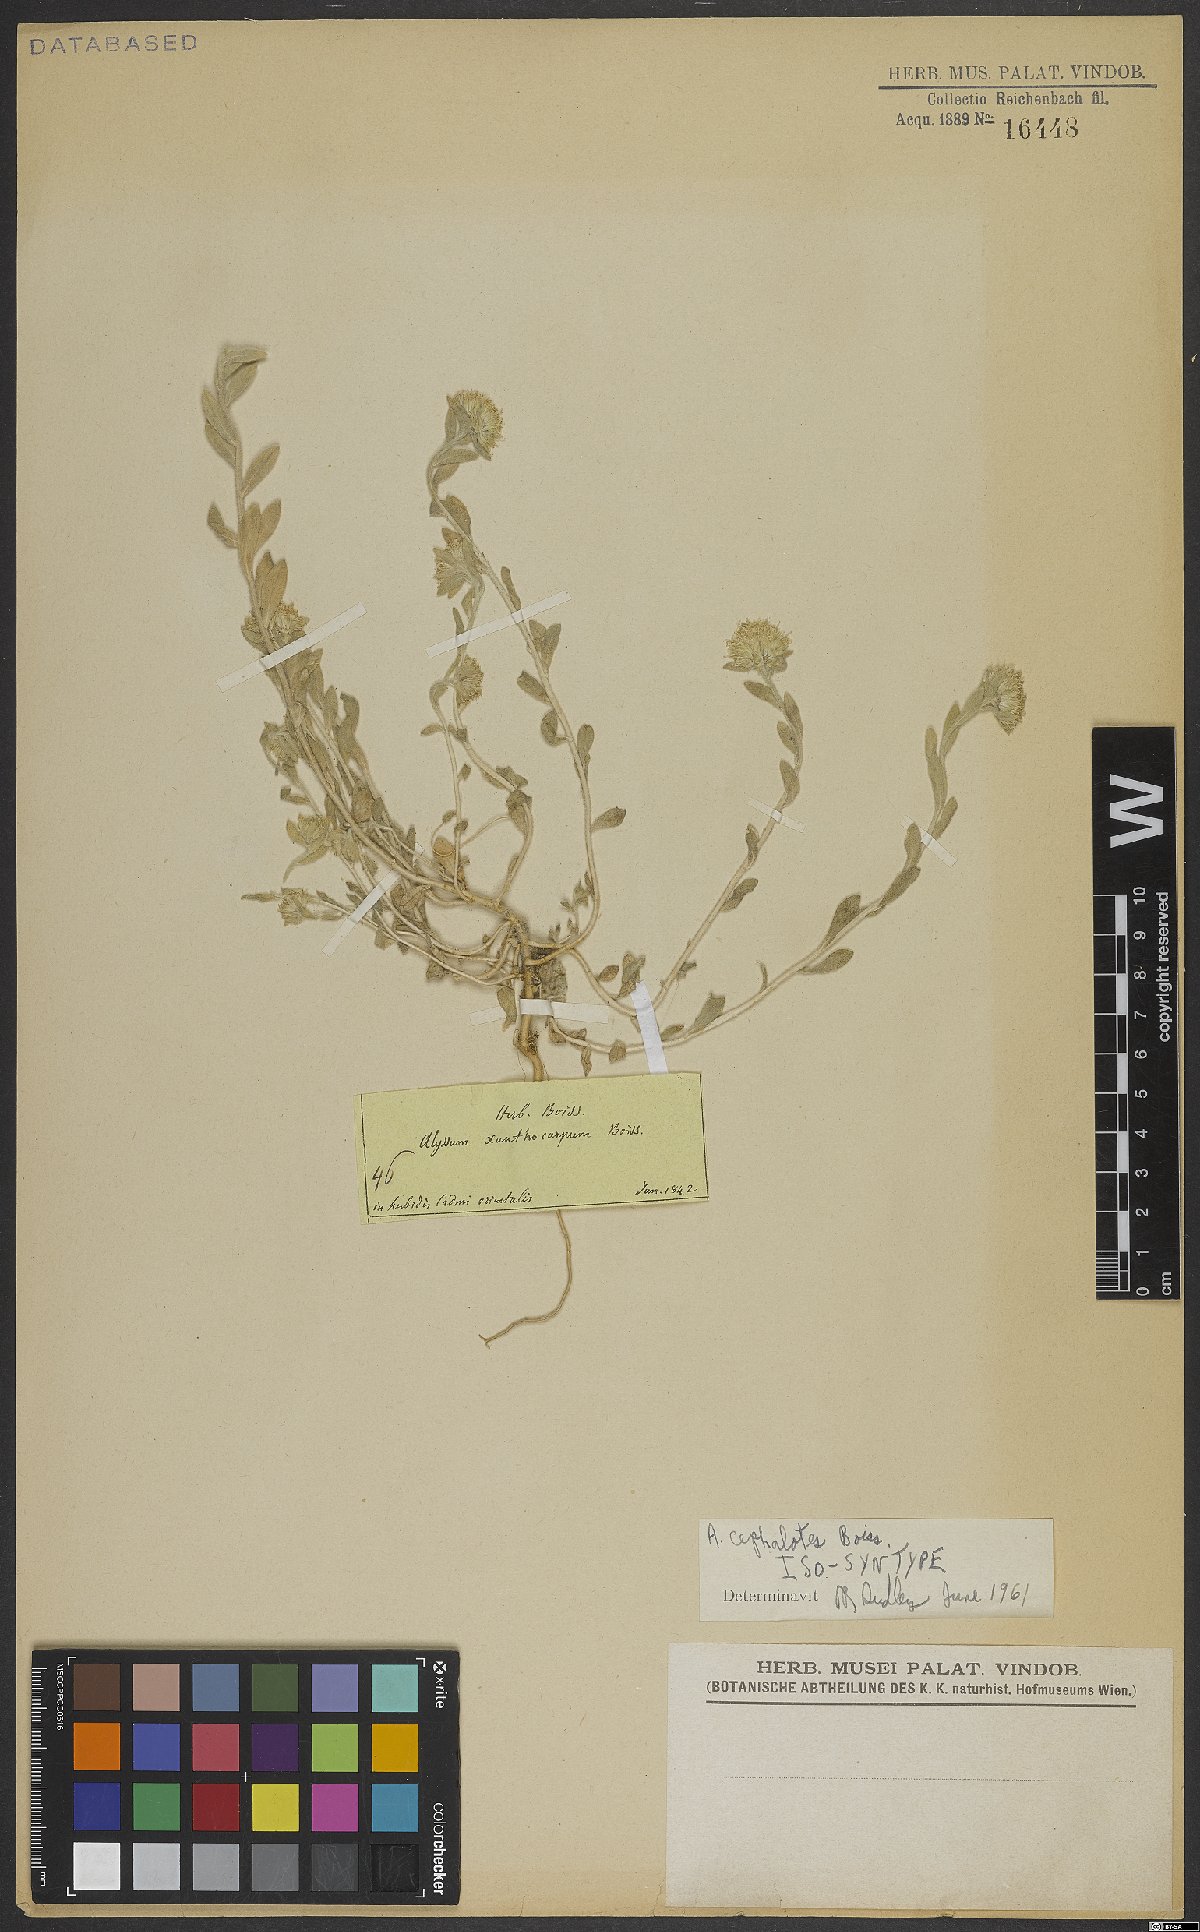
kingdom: Plantae
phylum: Tracheophyta
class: Magnoliopsida
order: Brassicales
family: Brassicaceae
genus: Alyssum
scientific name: Alyssum cephalotes
